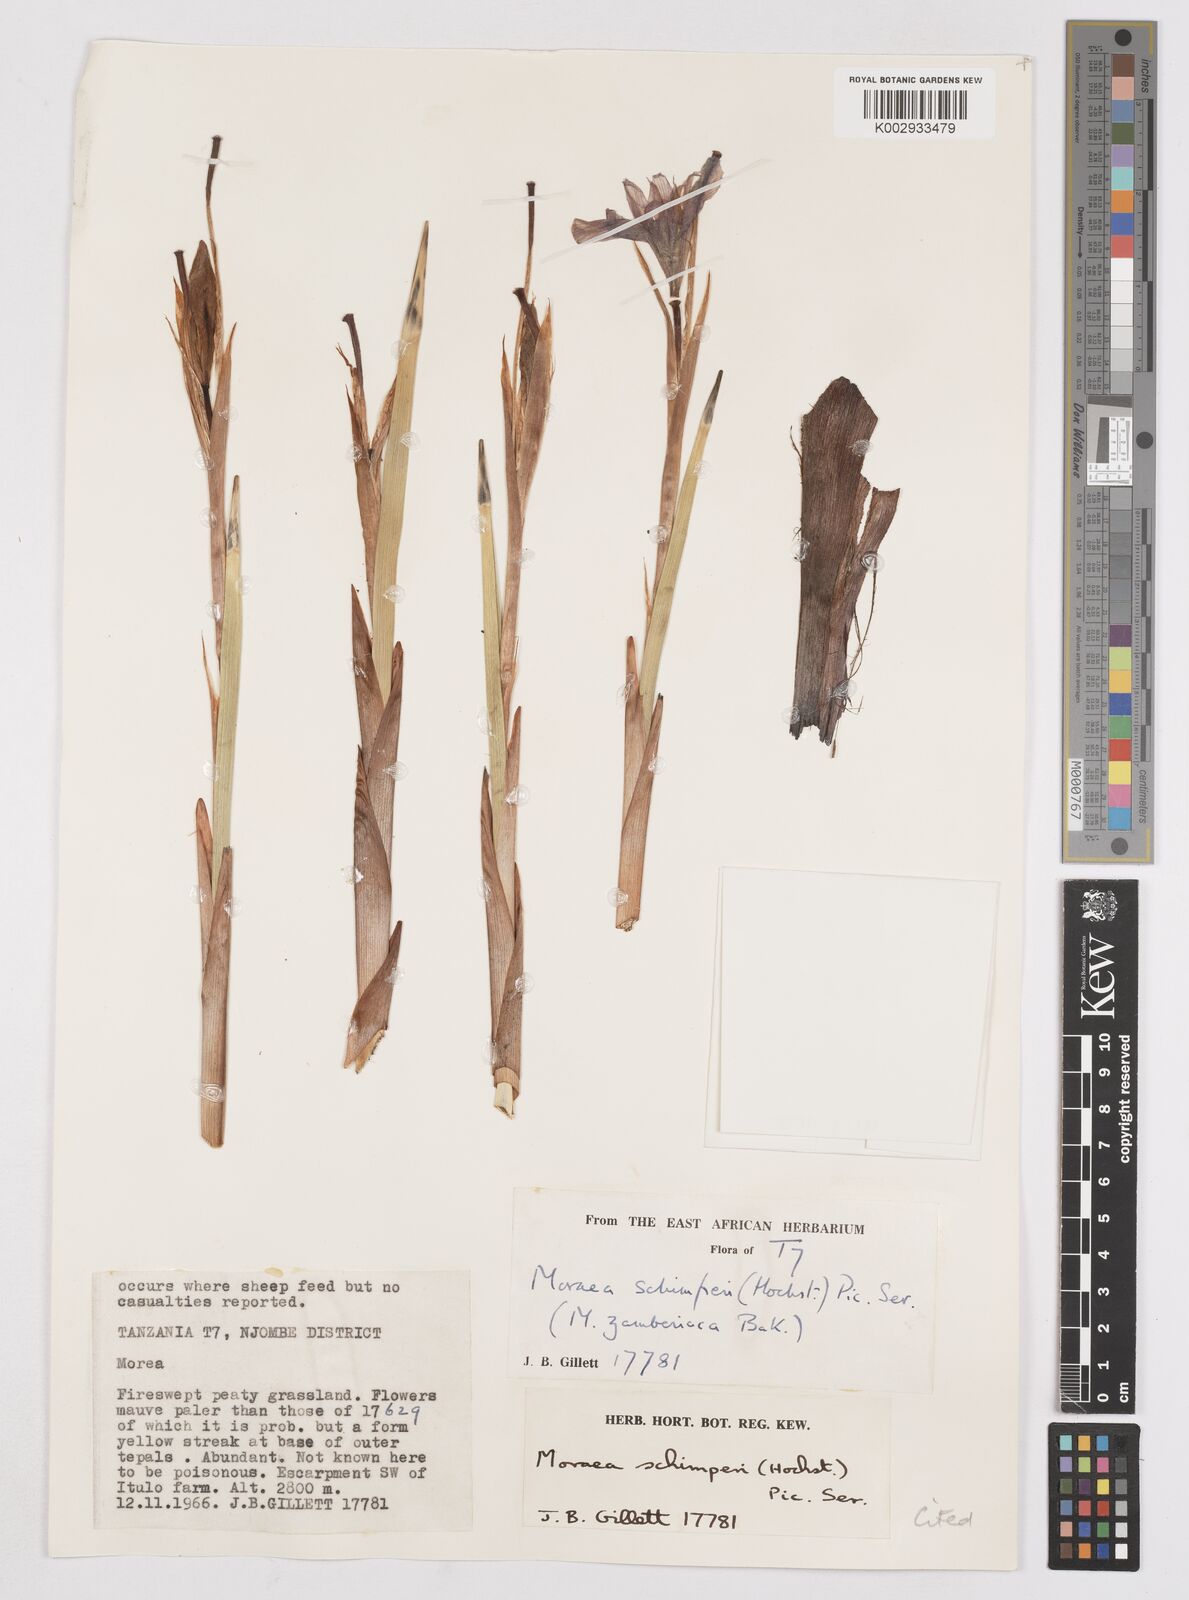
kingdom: Plantae
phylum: Tracheophyta
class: Liliopsida
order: Asparagales
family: Iridaceae
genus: Moraea
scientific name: Moraea schimperi
